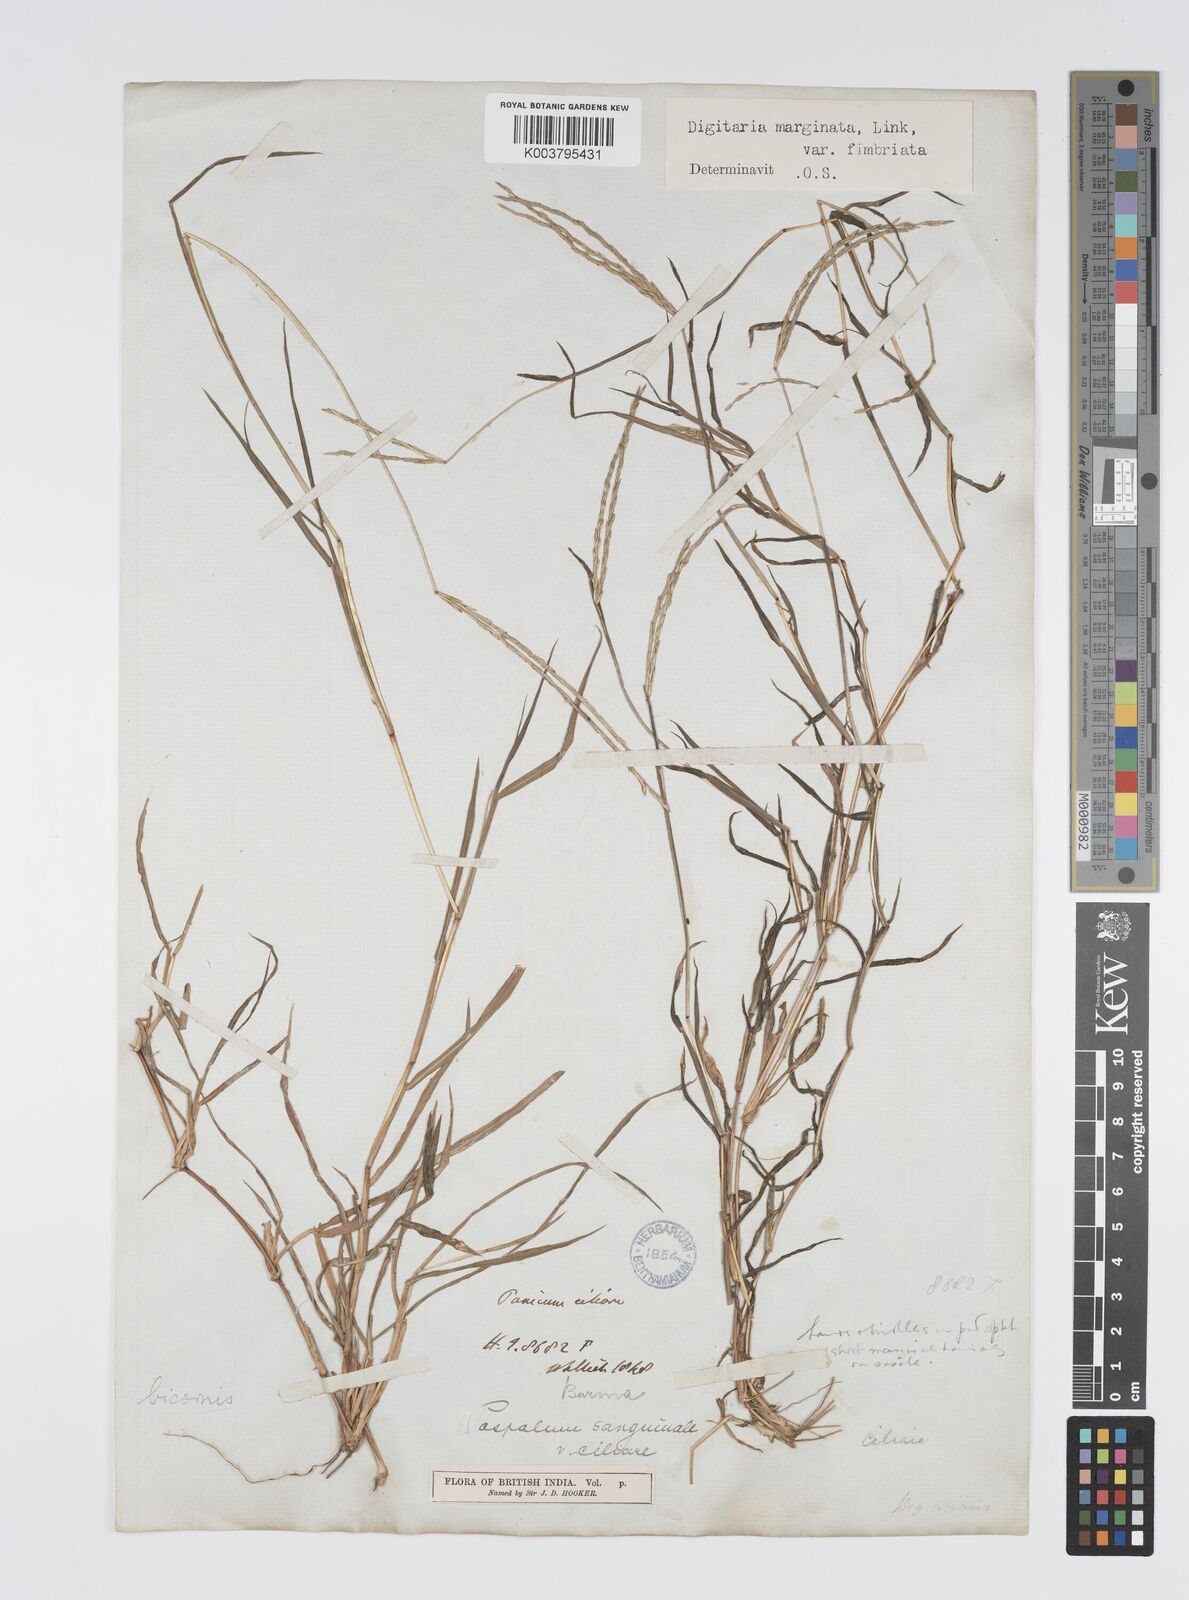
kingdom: Plantae
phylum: Tracheophyta
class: Liliopsida
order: Poales
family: Poaceae
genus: Digitaria
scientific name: Digitaria bicornis
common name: Asian crabgrass
